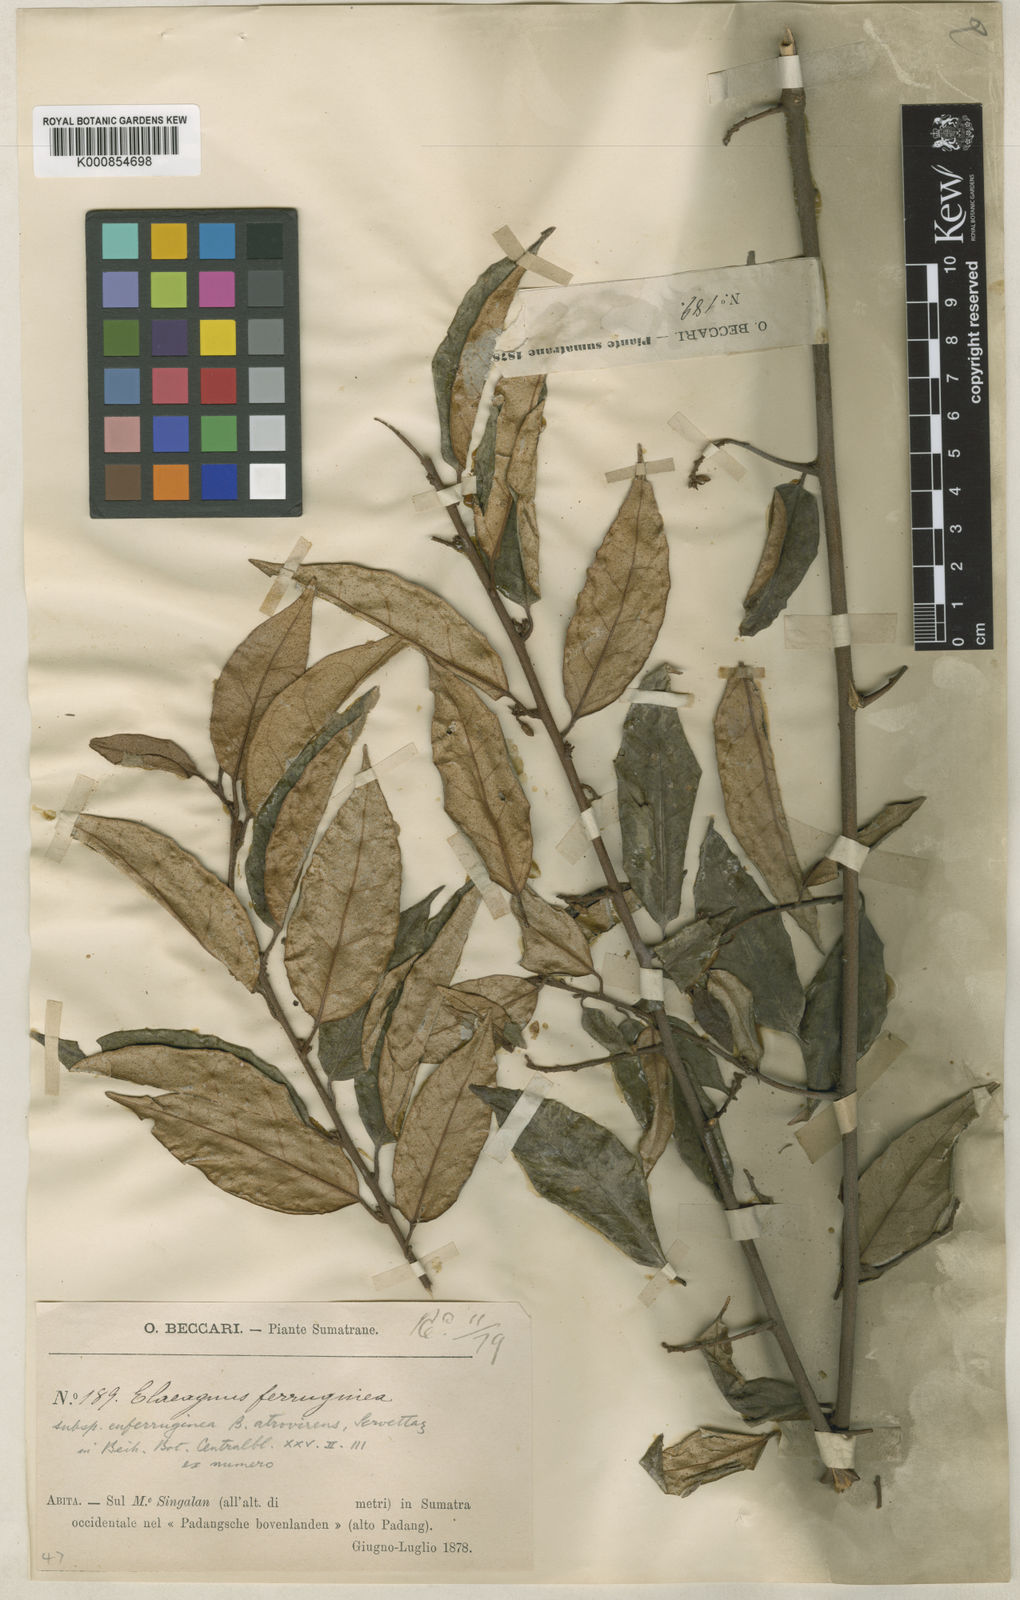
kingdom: Plantae
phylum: Tracheophyta
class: Magnoliopsida
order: Rosales
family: Elaeagnaceae
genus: Elaeagnus
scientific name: Elaeagnus triflora
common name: Millaa millaa-vine
